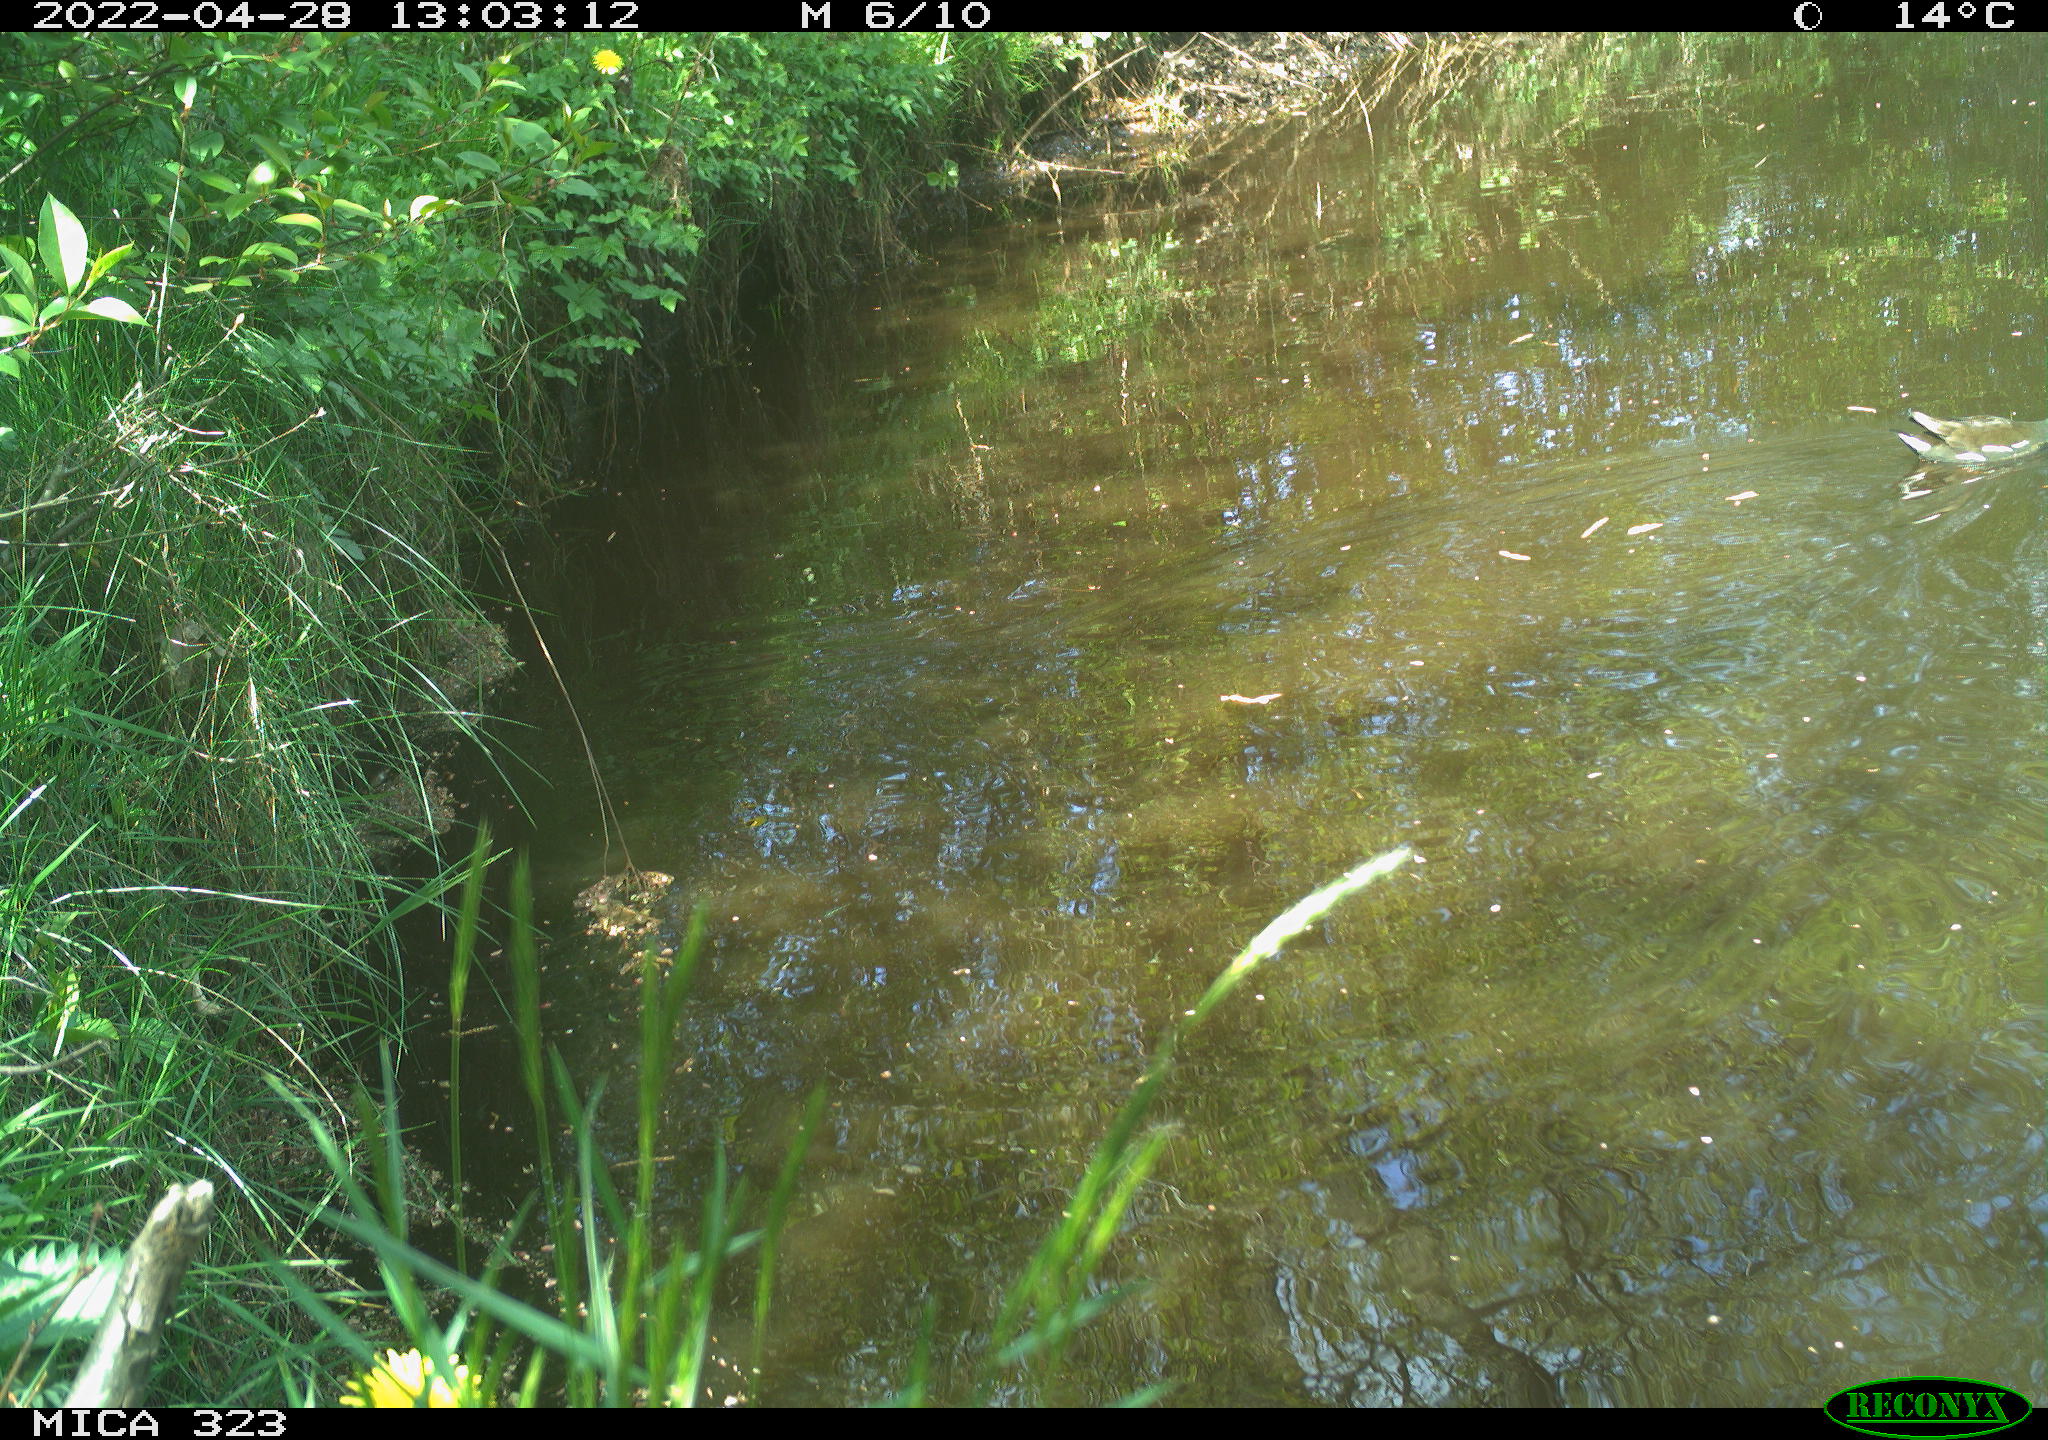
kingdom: Animalia
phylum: Chordata
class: Aves
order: Gruiformes
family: Rallidae
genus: Gallinula
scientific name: Gallinula chloropus
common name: Common moorhen
